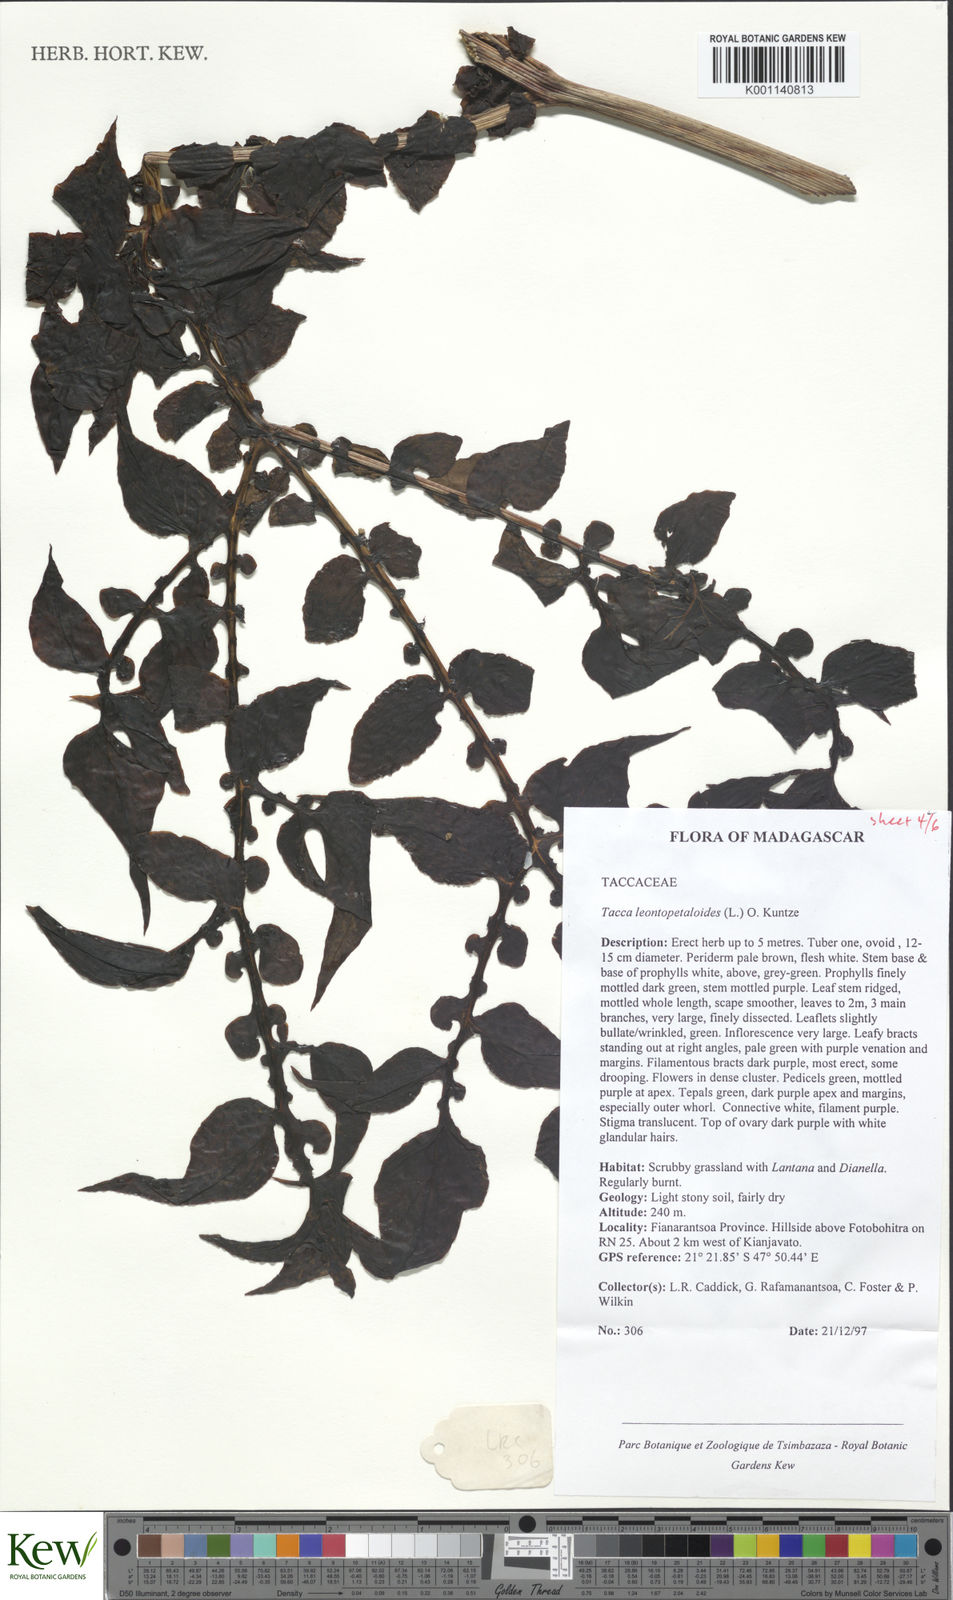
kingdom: Plantae
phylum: Tracheophyta
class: Liliopsida
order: Dioscoreales
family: Dioscoreaceae
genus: Tacca
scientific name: Tacca leontopetaloides
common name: Arrowroot
